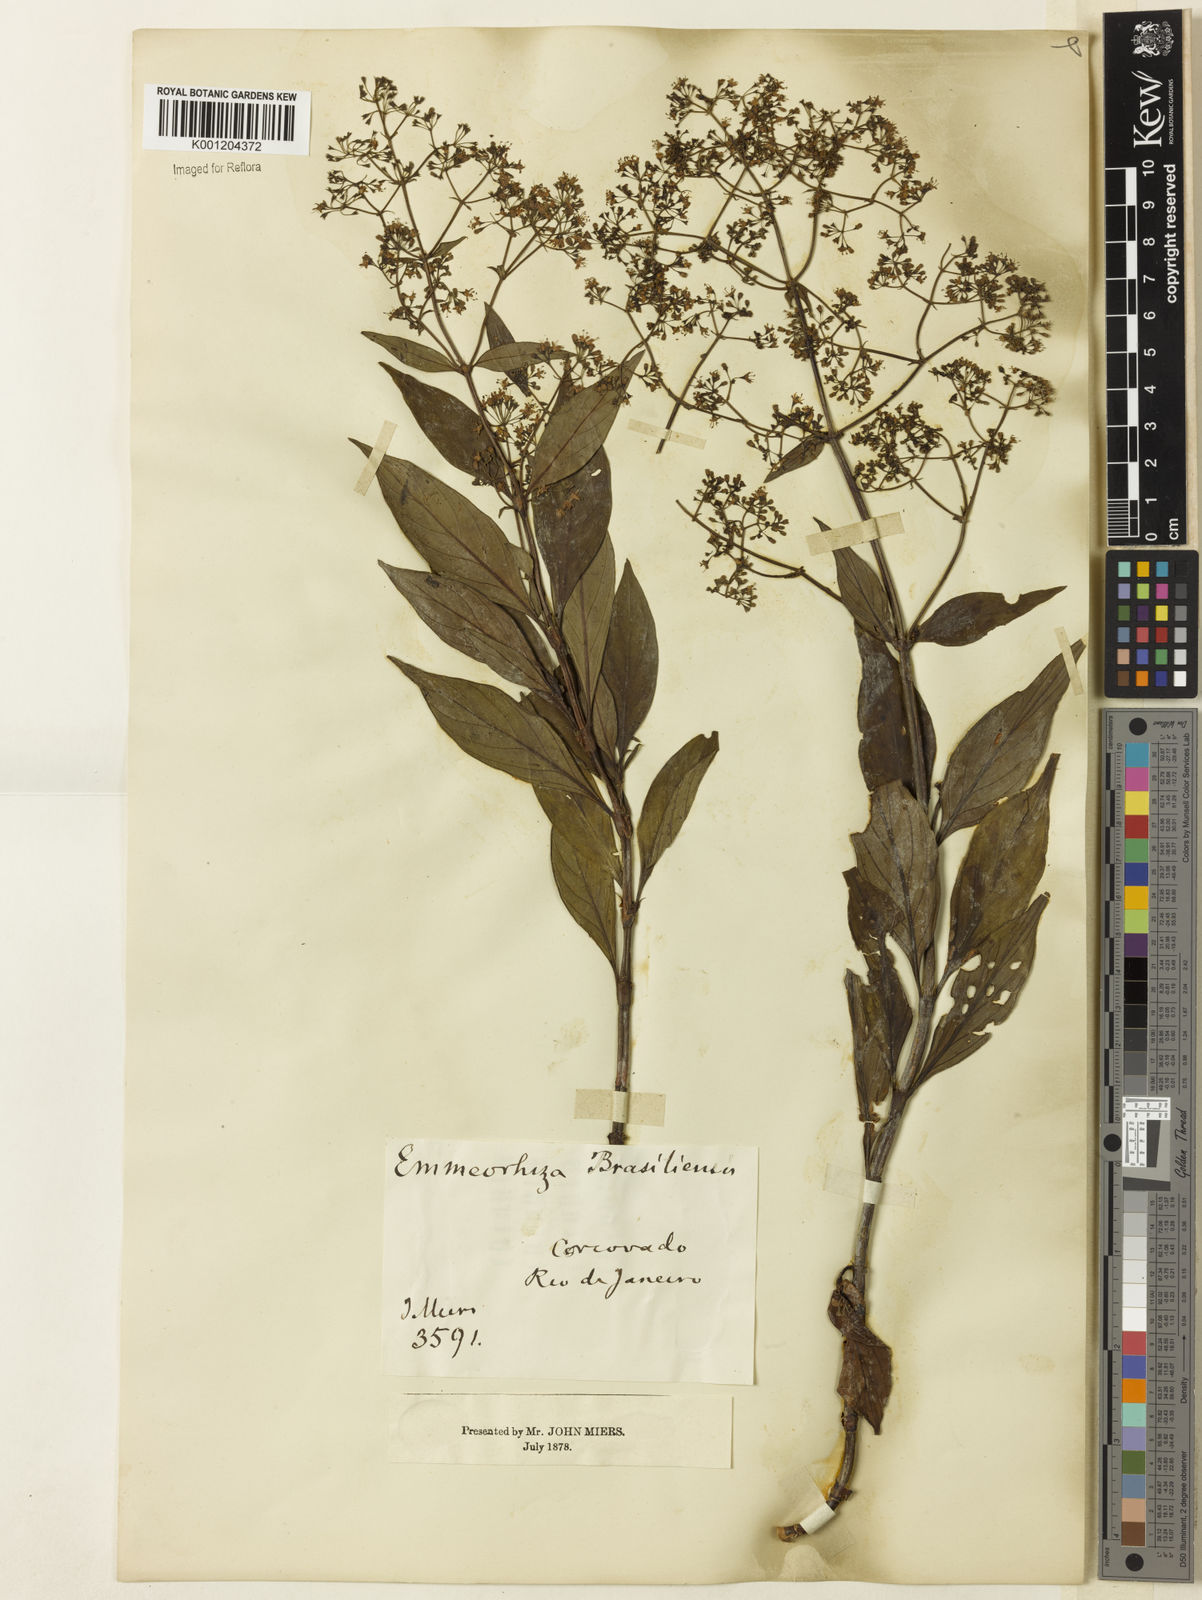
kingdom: Plantae
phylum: Tracheophyta
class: Magnoliopsida
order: Gentianales
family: Rubiaceae
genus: Emmeorhiza
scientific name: Emmeorhiza umbellata
